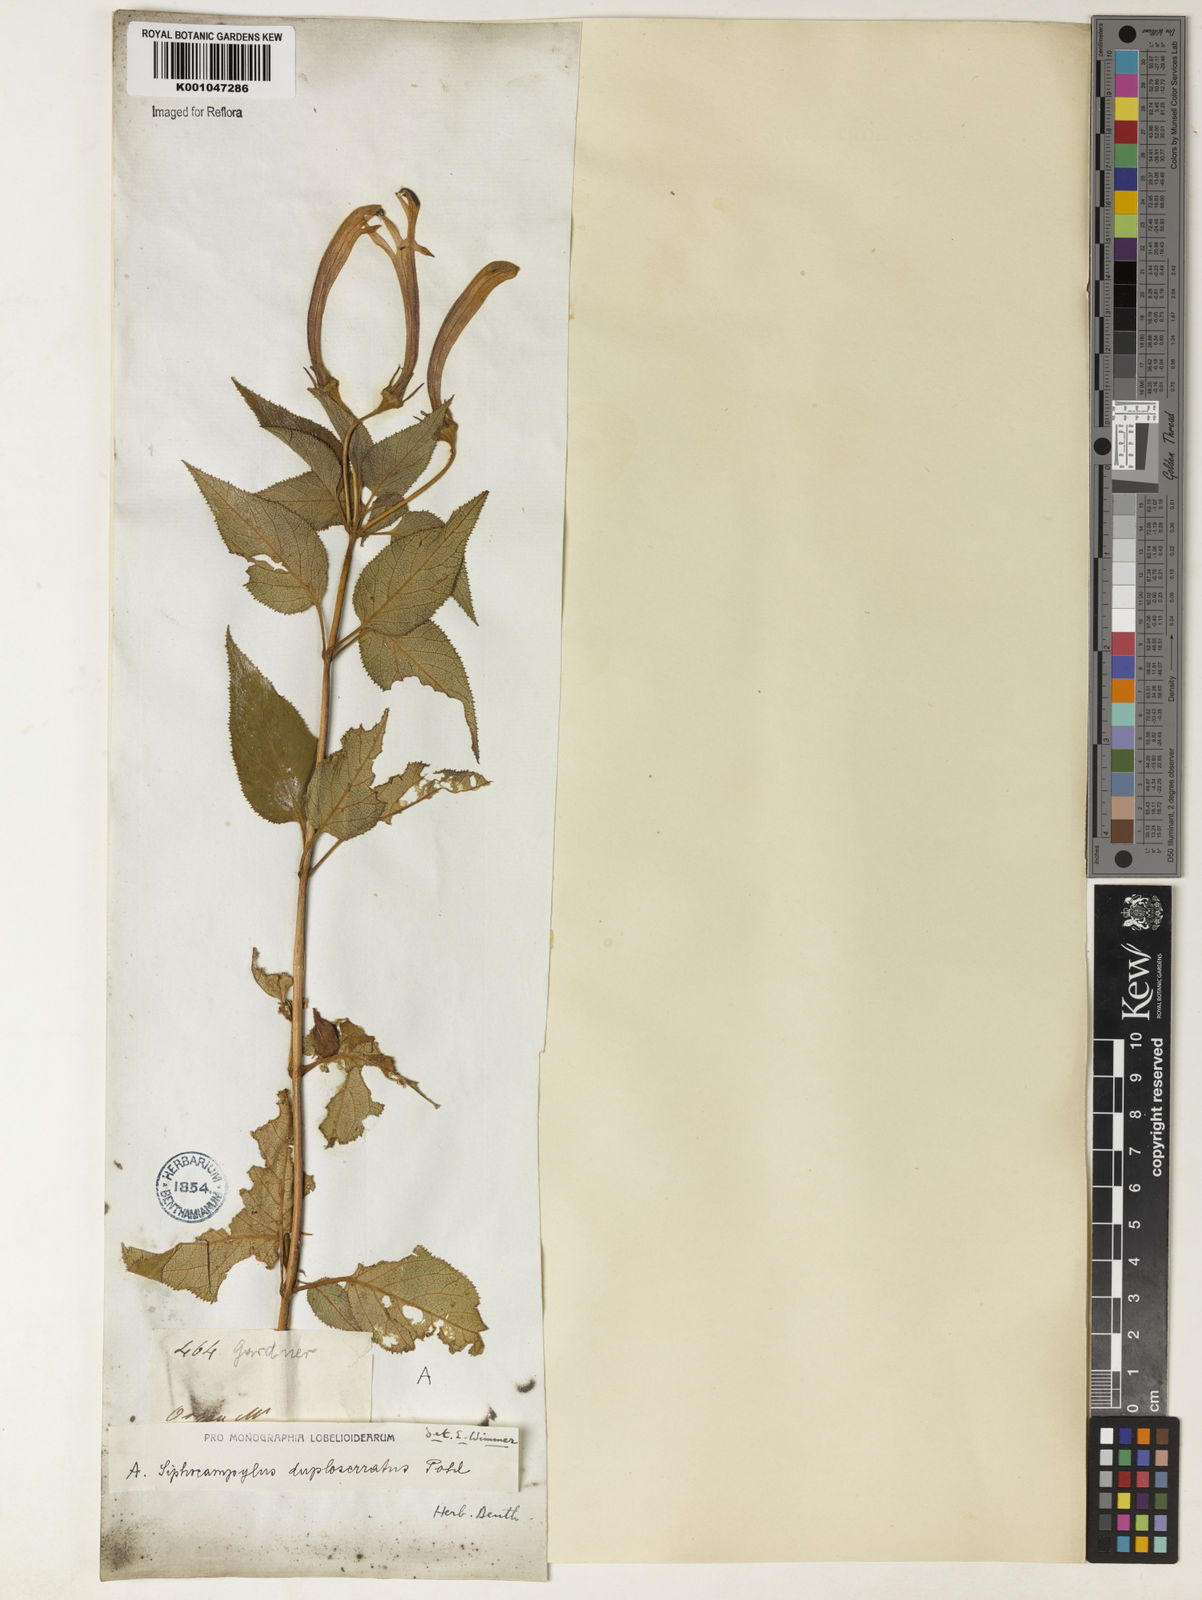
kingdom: Plantae
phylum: Tracheophyta
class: Magnoliopsida
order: Asterales
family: Campanulaceae
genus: Siphocampylus
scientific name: Siphocampylus duploserratus
